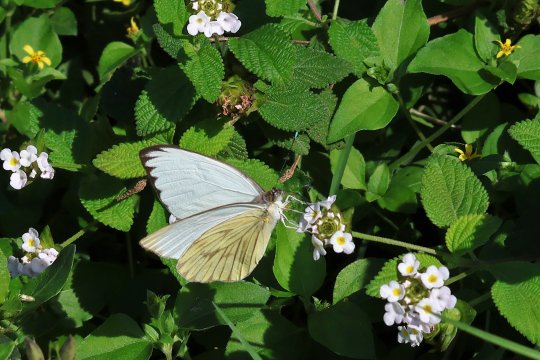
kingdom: Animalia
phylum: Arthropoda
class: Insecta
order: Lepidoptera
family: Pieridae
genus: Ascia
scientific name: Ascia monuste
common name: Great Southern White
